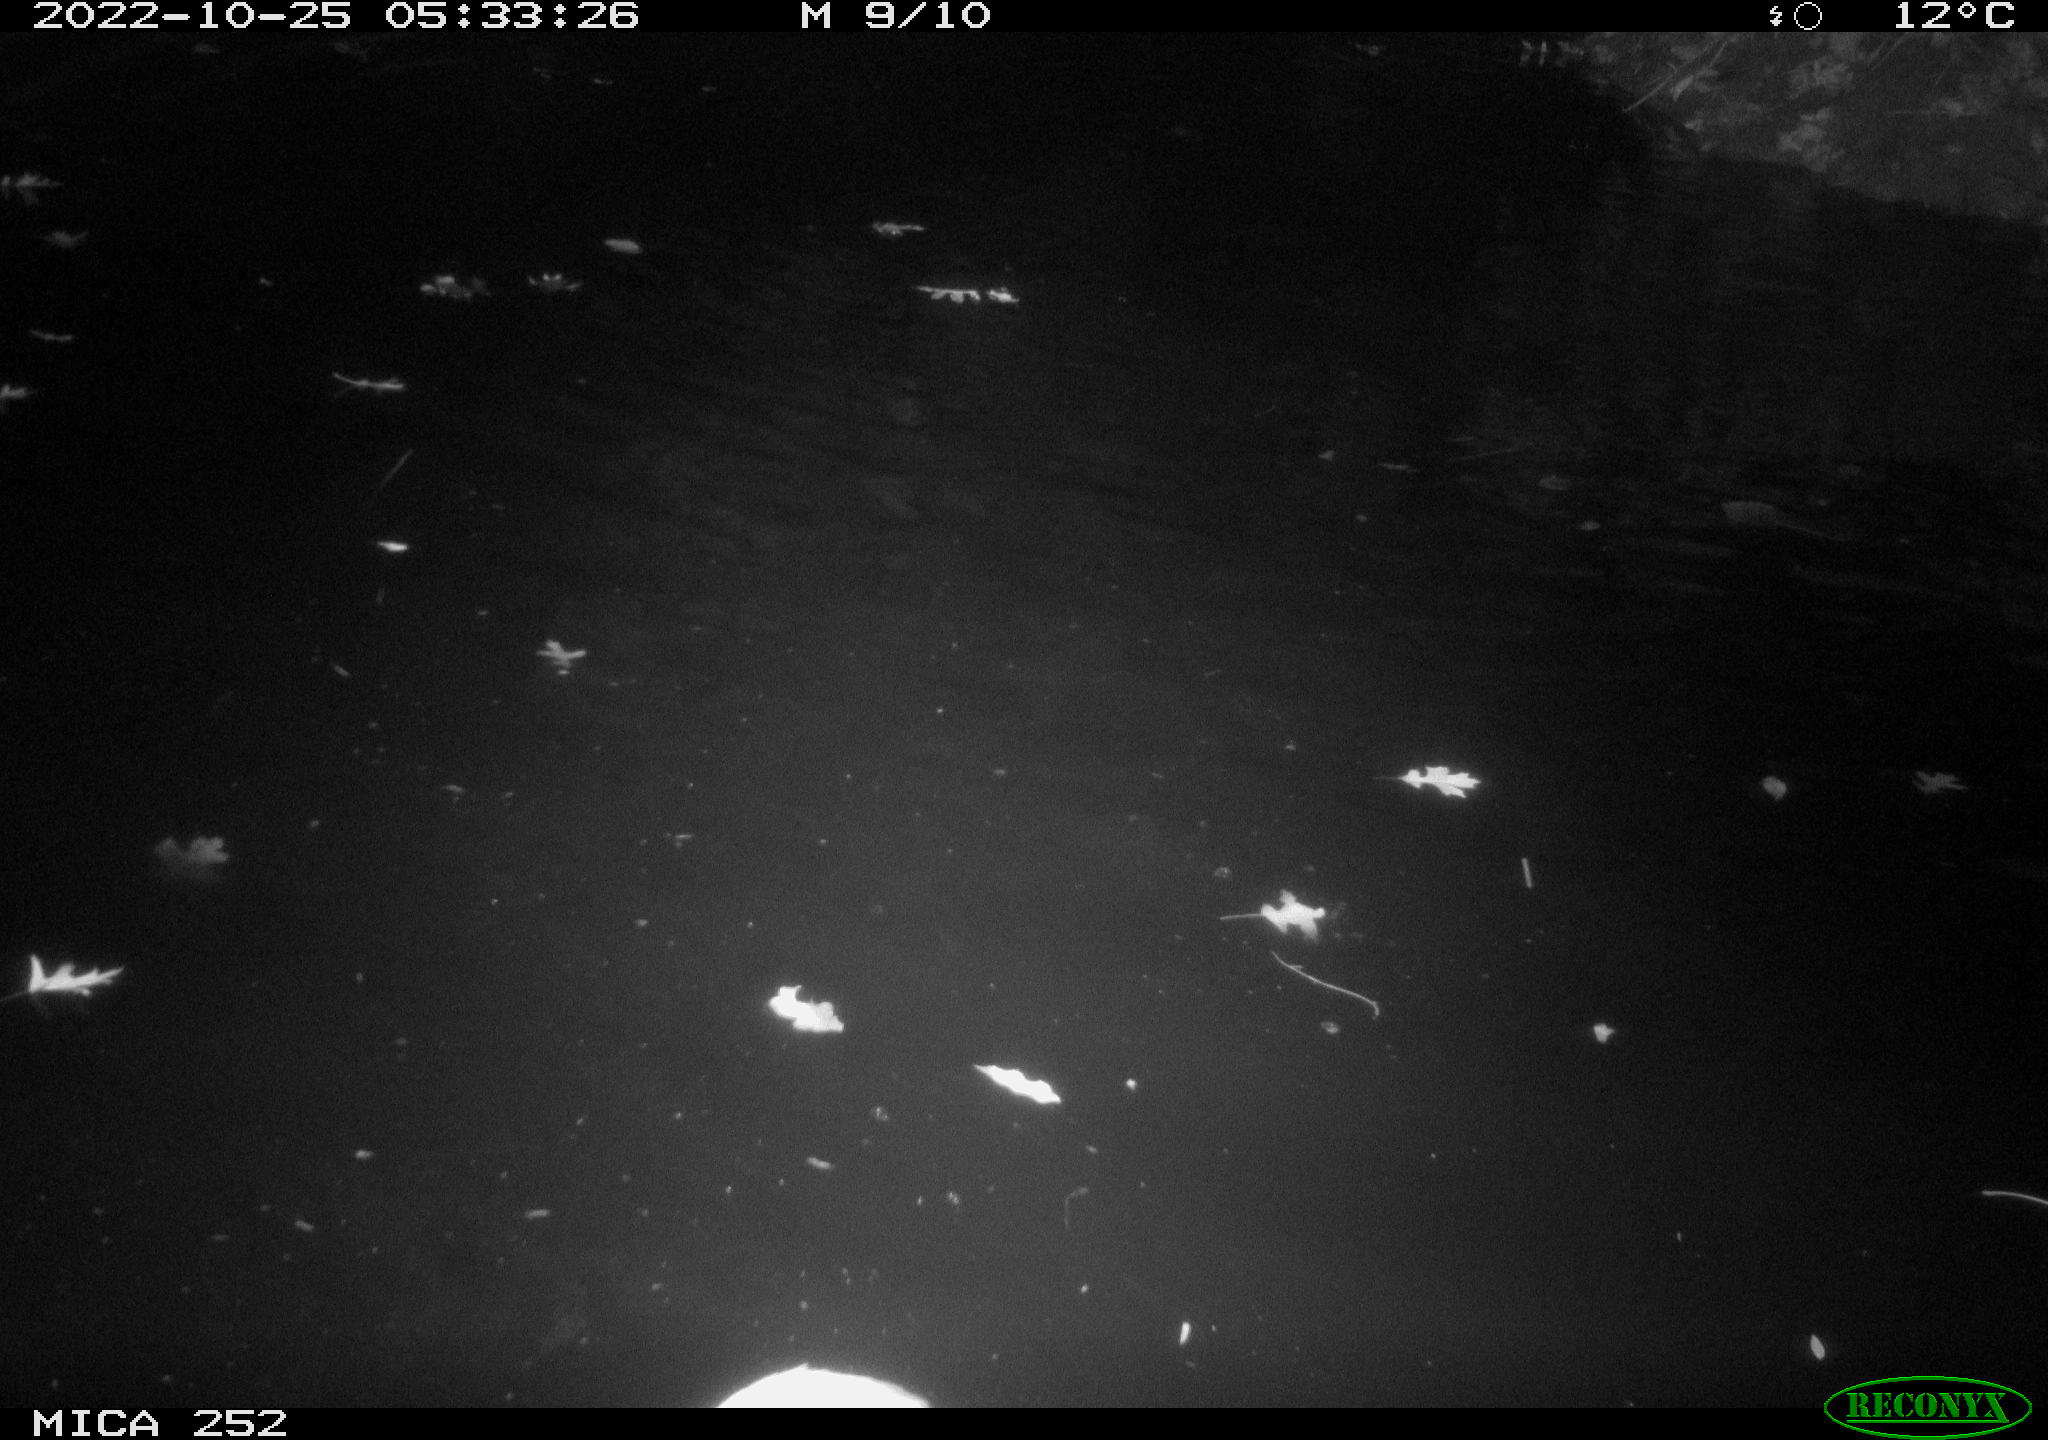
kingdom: Animalia
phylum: Chordata
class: Aves
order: Pelecaniformes
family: Ardeidae
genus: Ardea
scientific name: Ardea cinerea
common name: Grey heron
